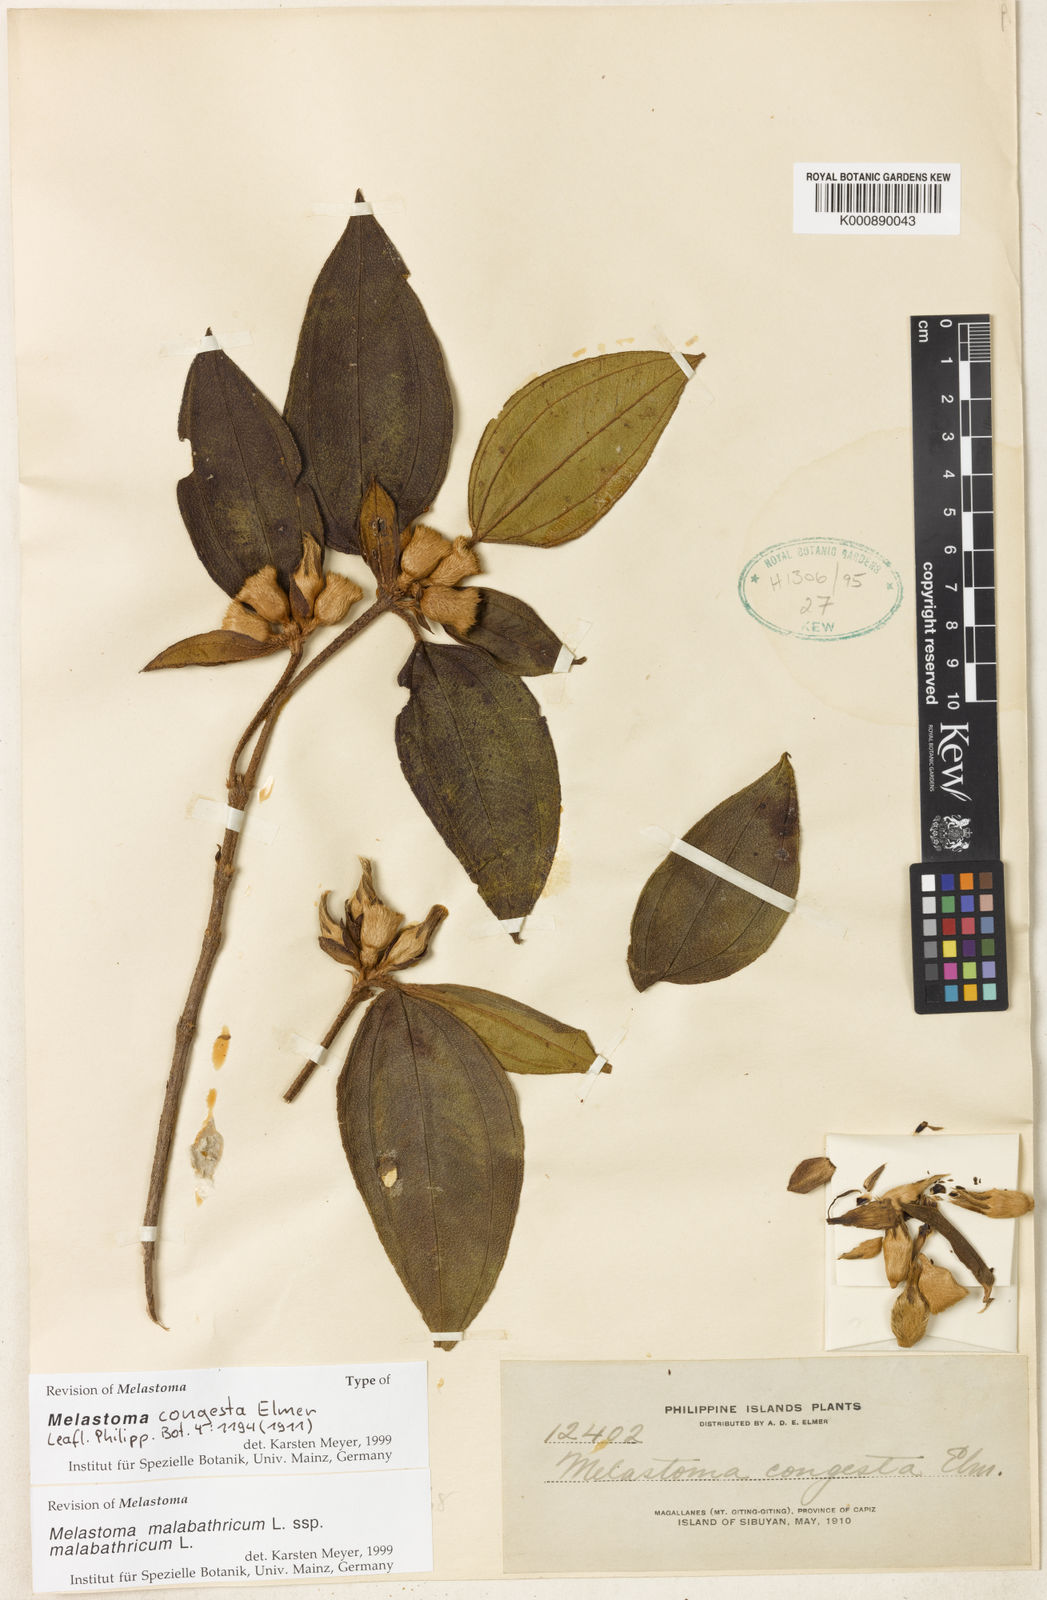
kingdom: Plantae
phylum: Tracheophyta
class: Magnoliopsida
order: Myrtales
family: Melastomataceae
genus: Melastoma
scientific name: Melastoma malabathricum
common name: Indian-rhododendron
